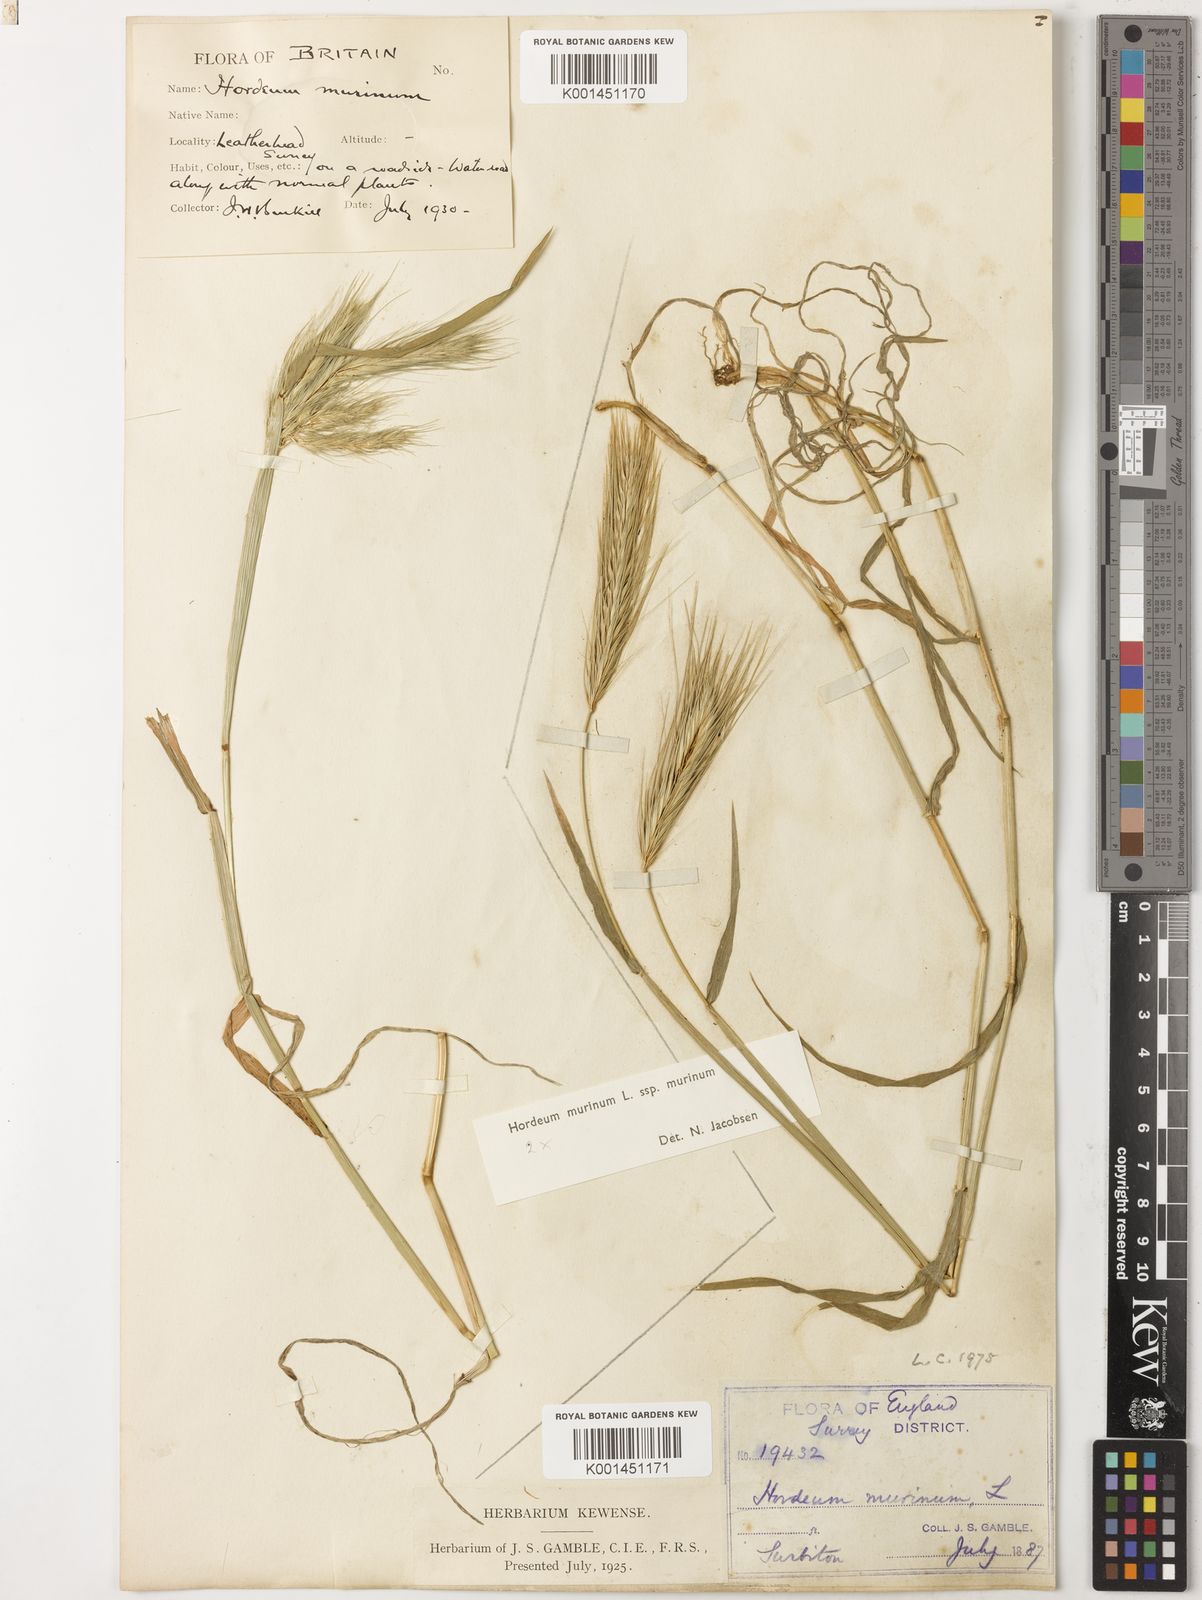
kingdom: Plantae
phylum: Tracheophyta
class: Liliopsida
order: Poales
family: Poaceae
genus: Hordeum
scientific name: Hordeum murinum
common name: Wall barley
